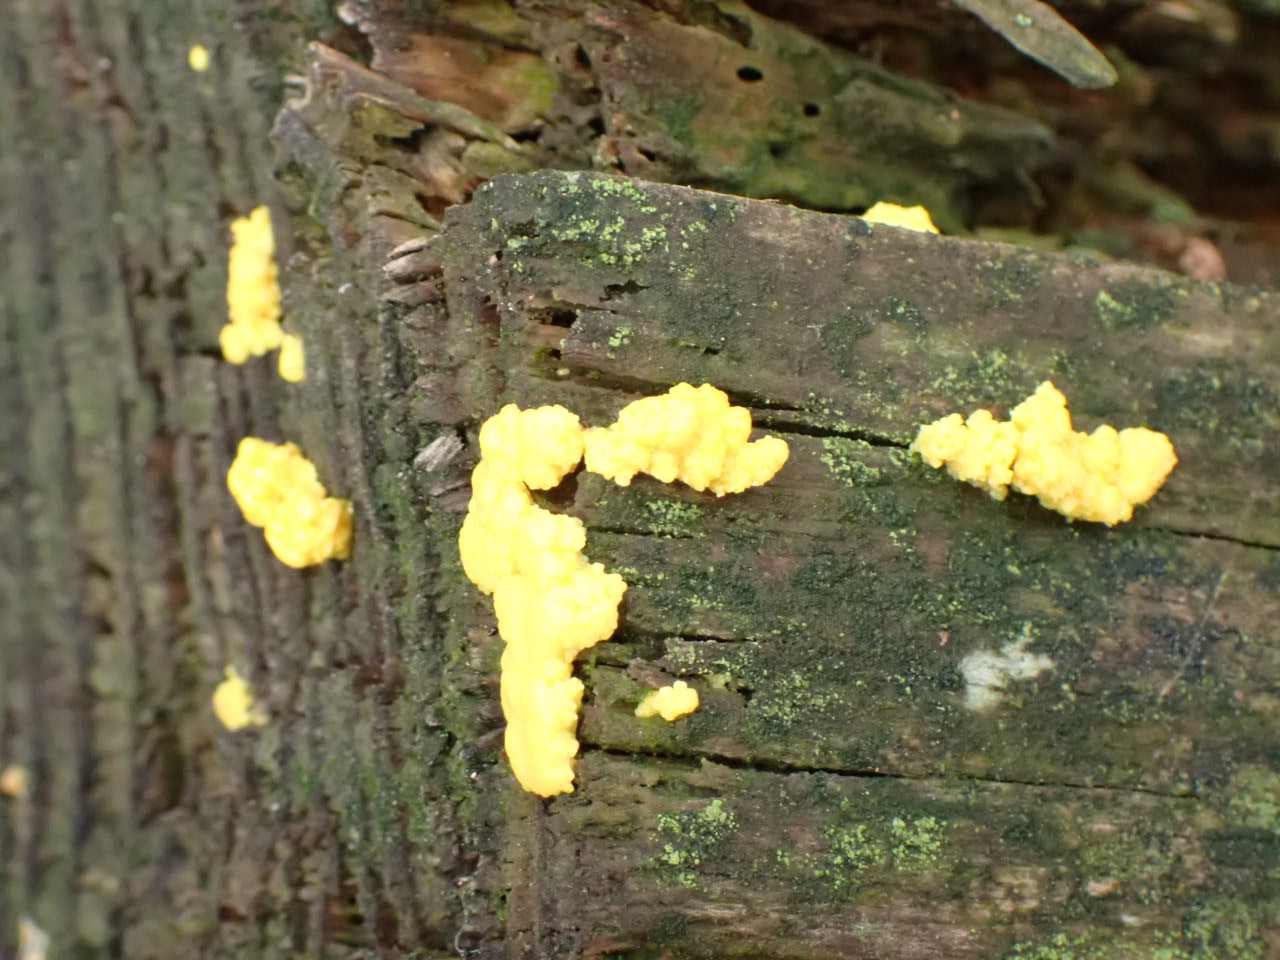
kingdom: Protozoa
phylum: Mycetozoa
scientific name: Mycetozoa
